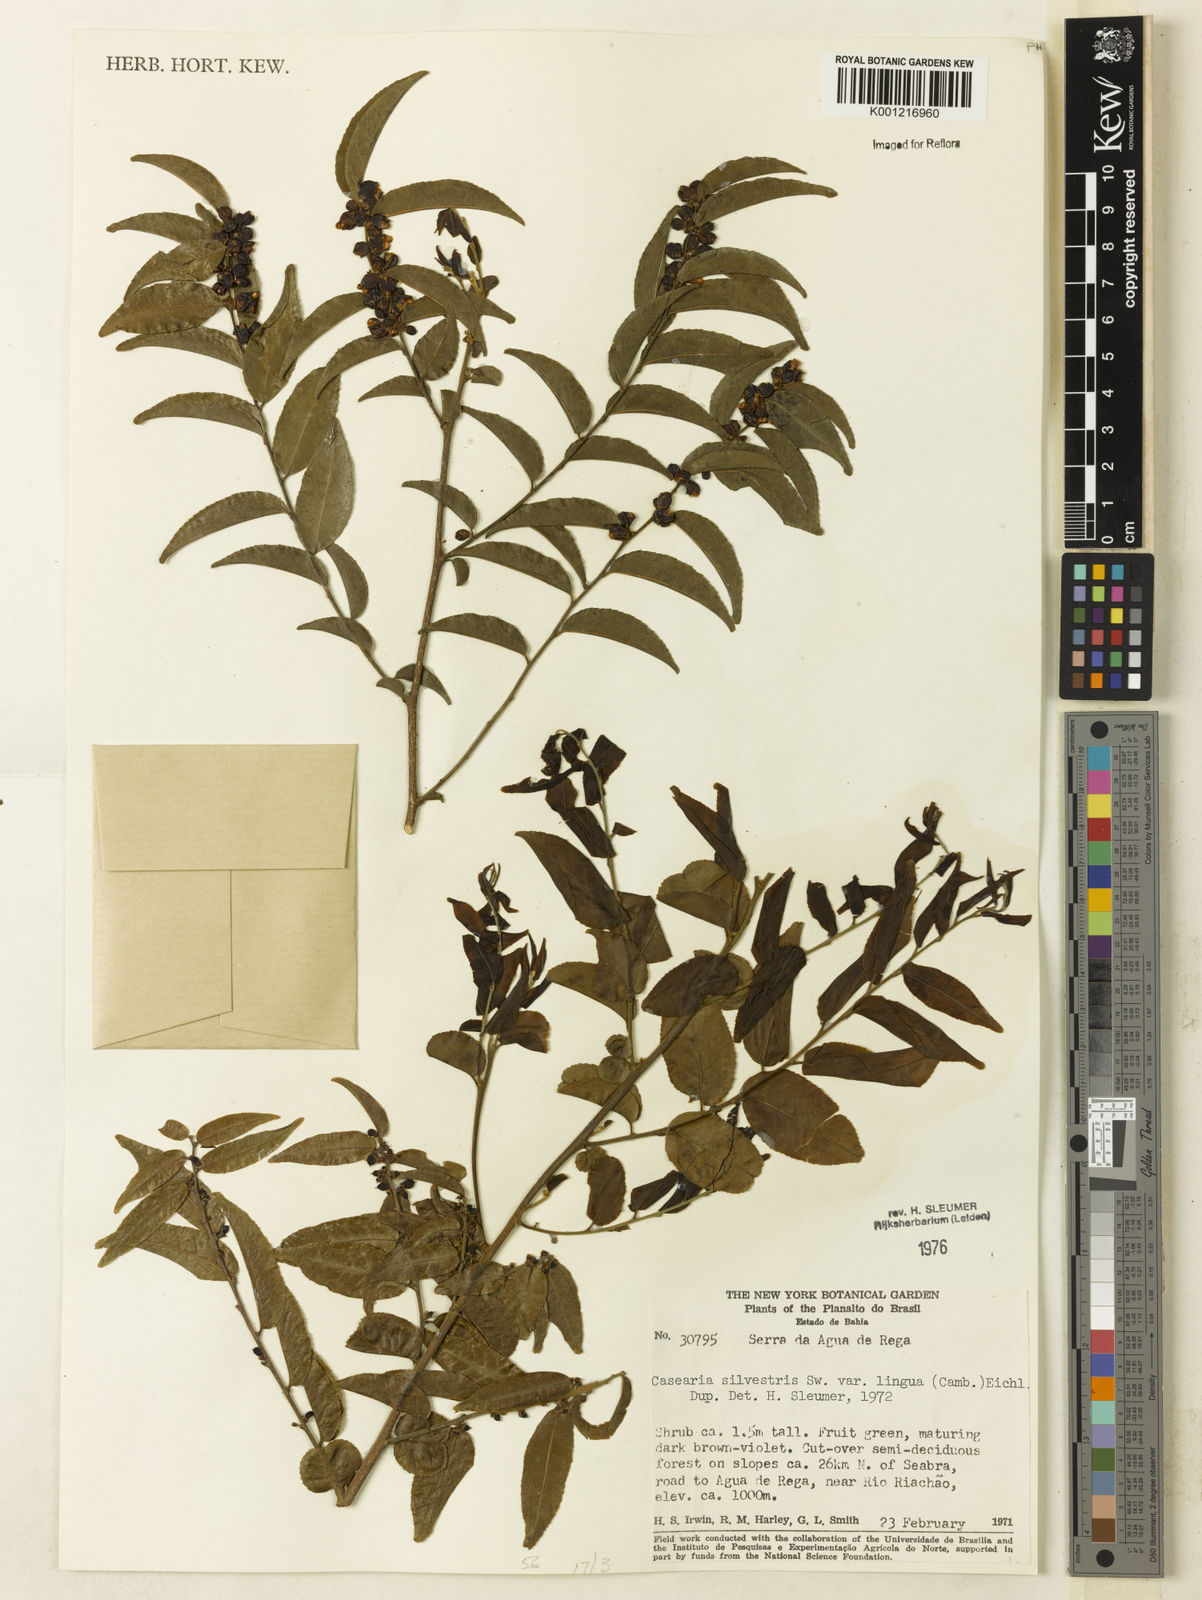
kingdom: Plantae
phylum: Tracheophyta
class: Magnoliopsida
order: Malpighiales
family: Salicaceae
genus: Casearia
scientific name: Casearia sylvestris
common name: Wild sage
